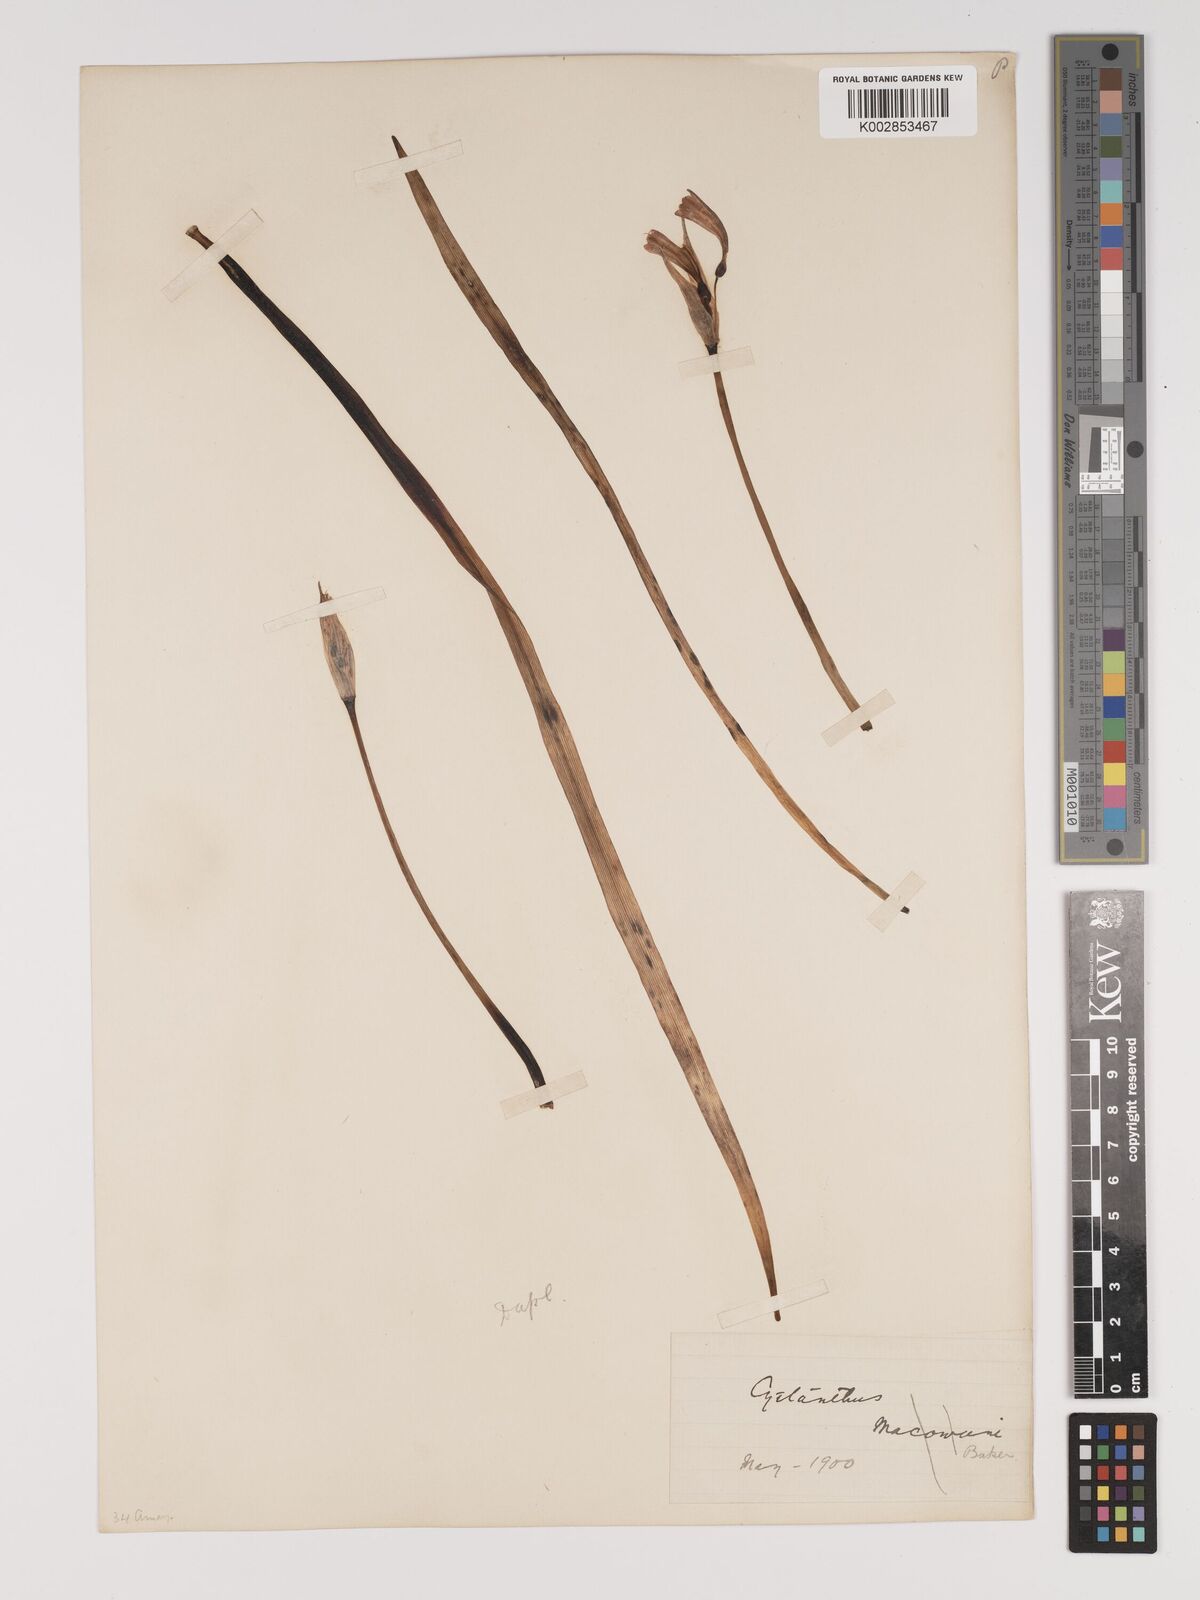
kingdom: Plantae
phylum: Tracheophyta
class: Liliopsida
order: Asparagales
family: Amaryllidaceae
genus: Cyrtanthus
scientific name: Cyrtanthus bicolor
